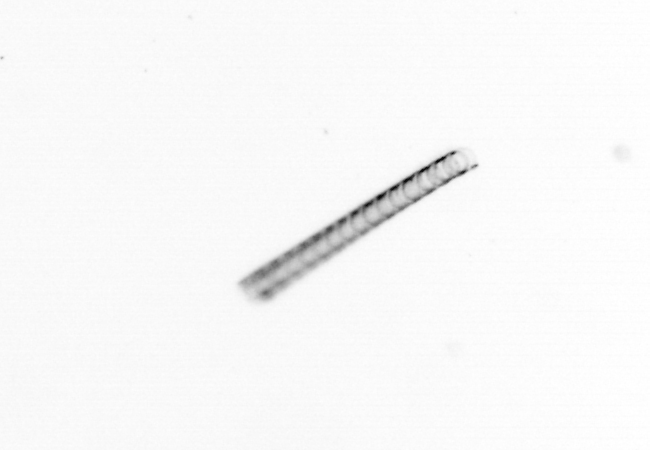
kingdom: Chromista
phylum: Ochrophyta
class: Bacillariophyceae
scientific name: Bacillariophyceae
